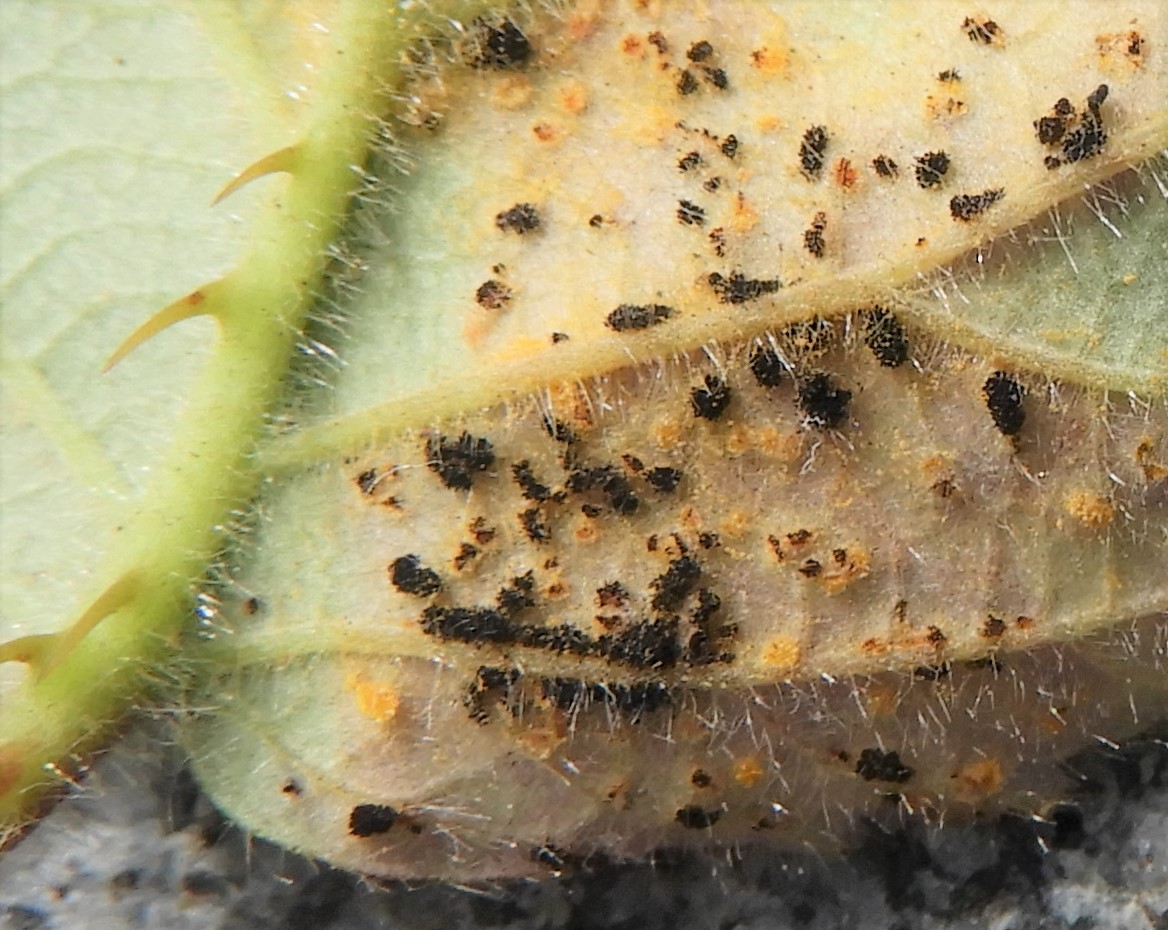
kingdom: Fungi
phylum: Basidiomycota
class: Pucciniomycetes
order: Pucciniales
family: Phragmidiaceae
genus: Phragmidium
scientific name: Phragmidium
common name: flercellerust
